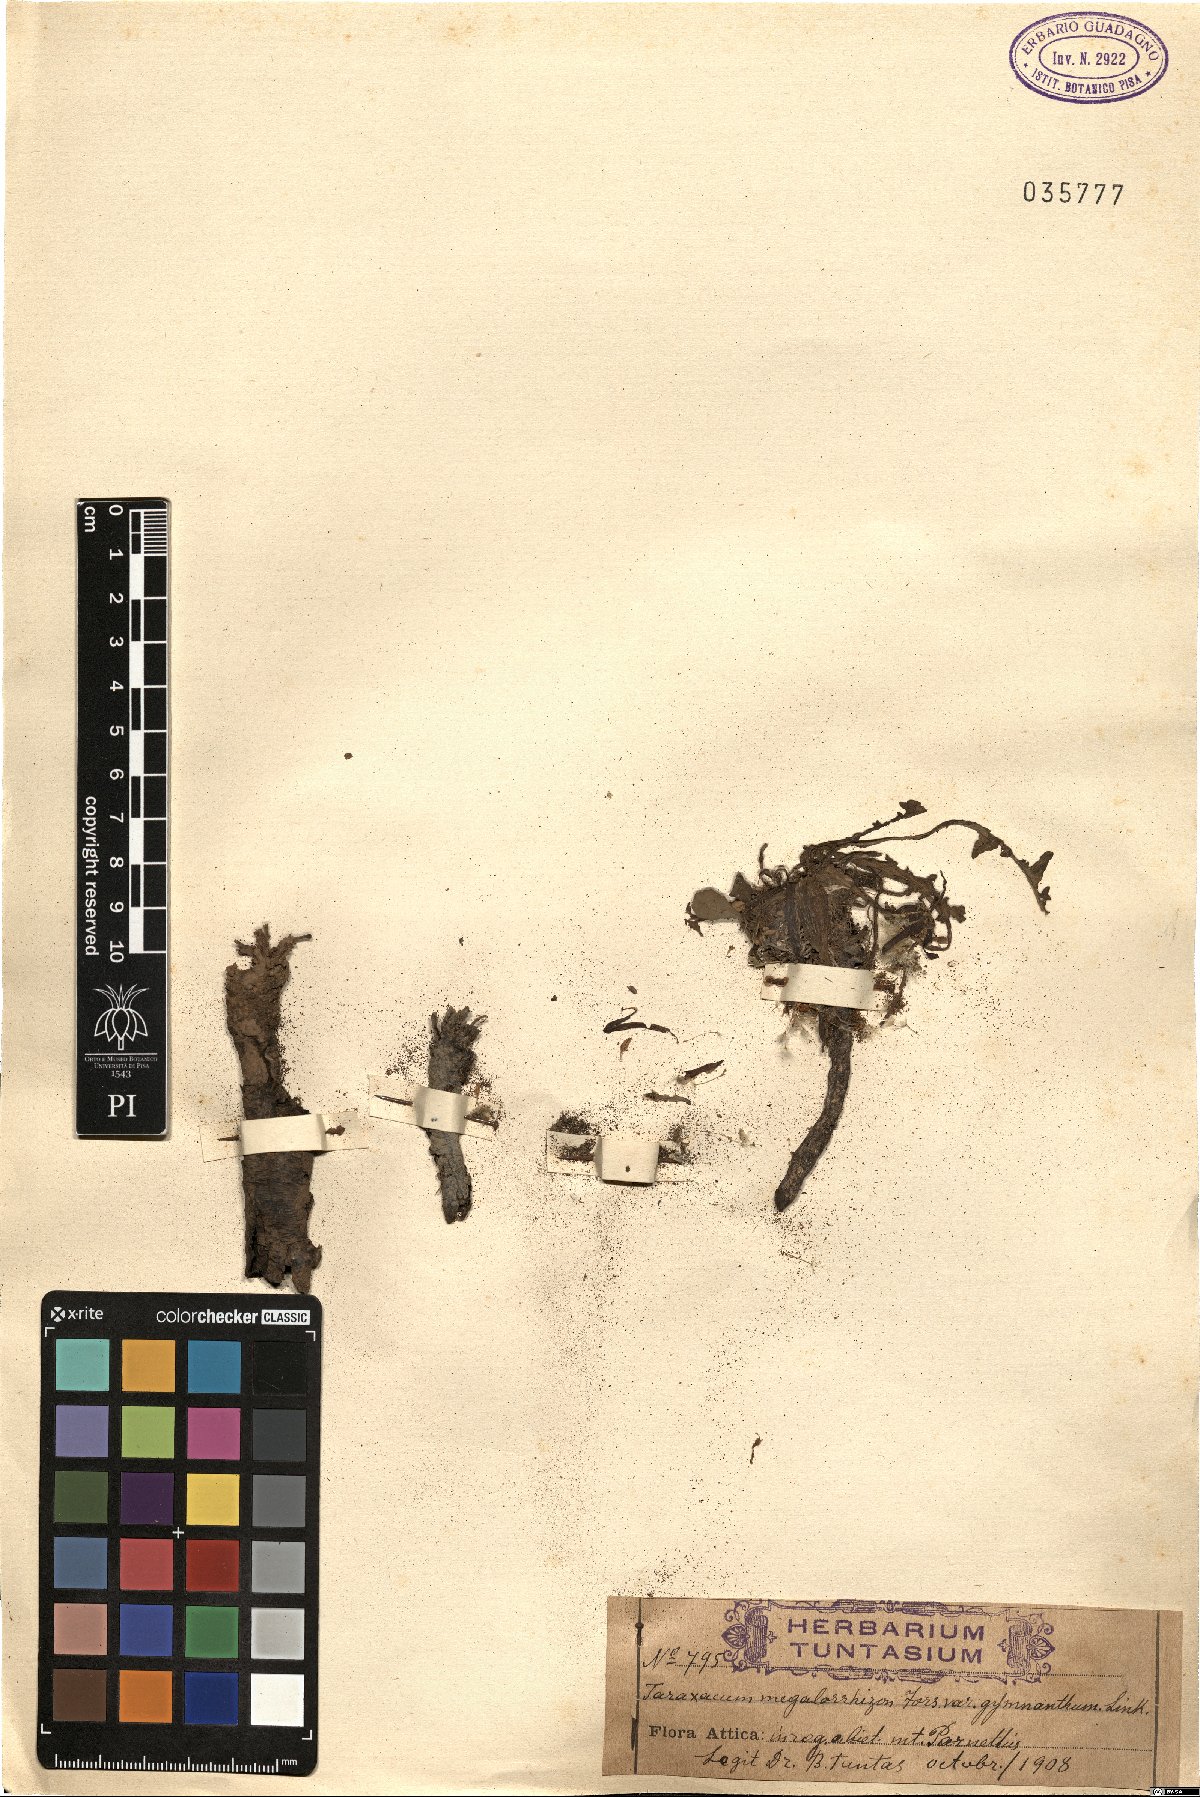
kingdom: Plantae
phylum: Tracheophyta
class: Magnoliopsida
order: Asterales
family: Asteraceae
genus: Taraxacum
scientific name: Taraxacum megalorhizon
